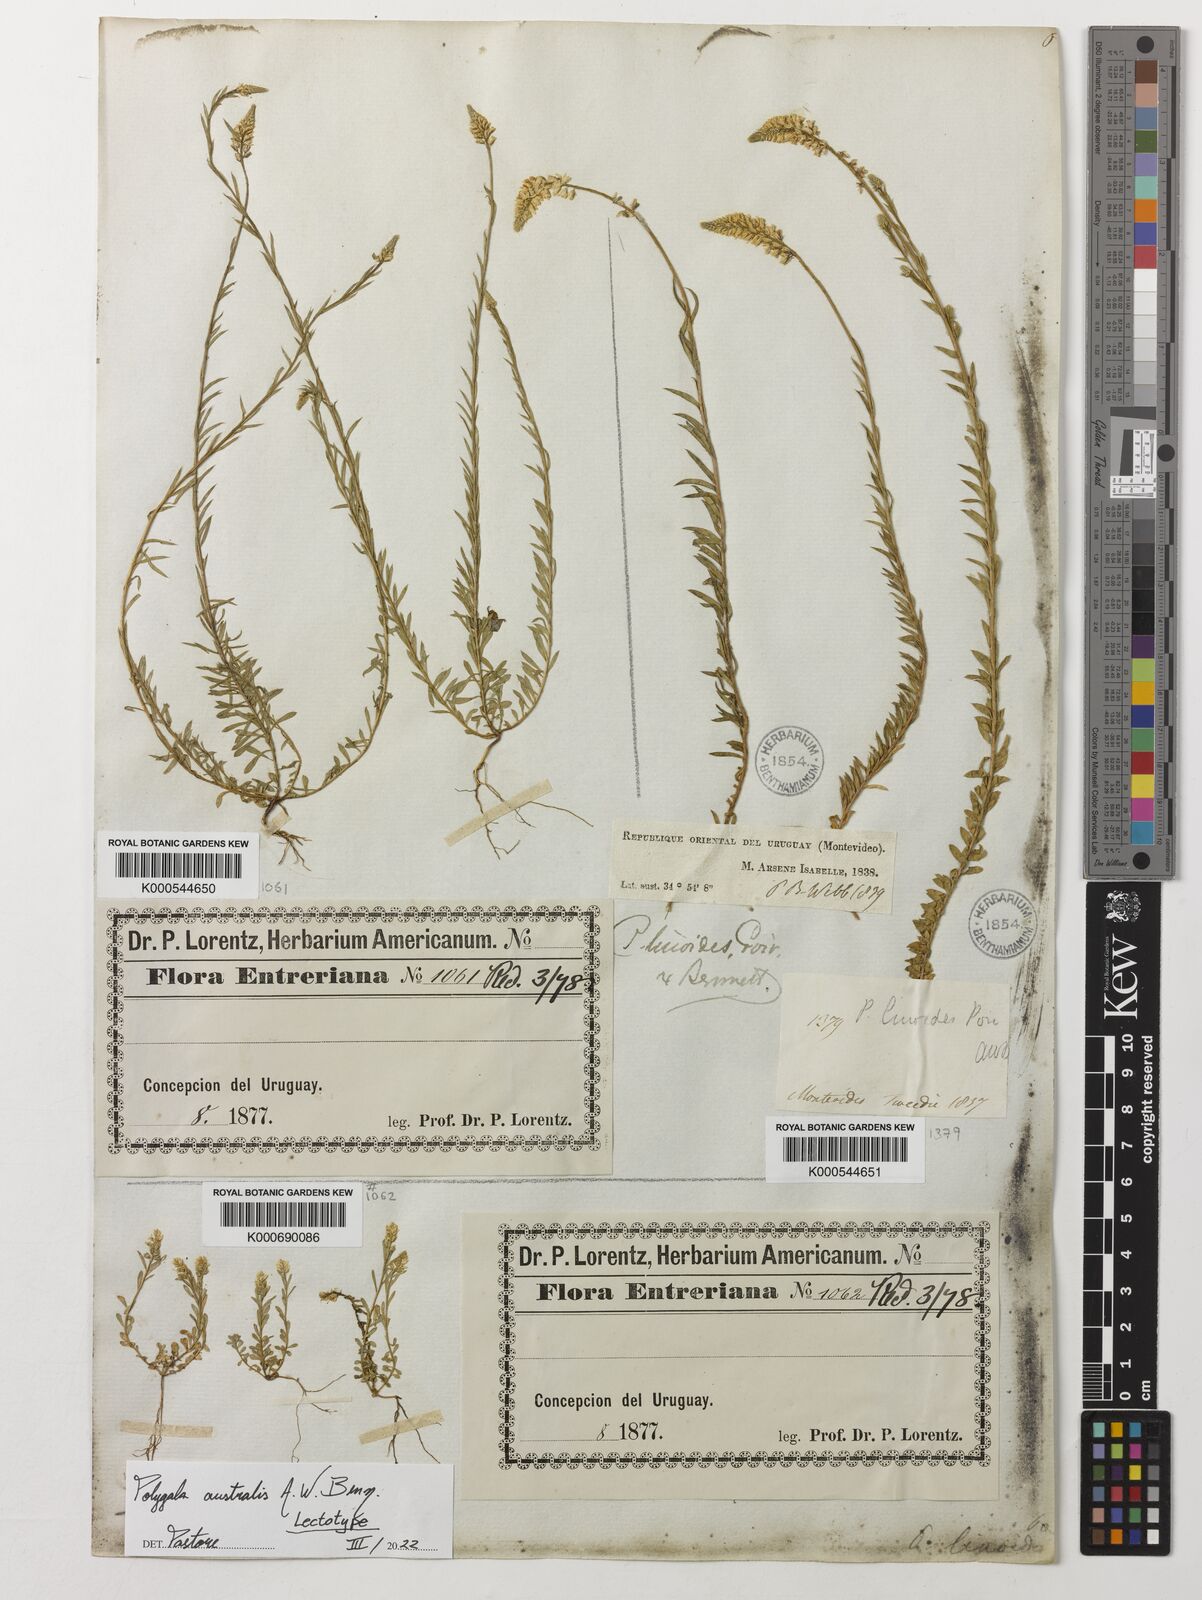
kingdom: Plantae
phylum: Tracheophyta
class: Magnoliopsida
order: Fabales
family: Polygalaceae
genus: Polygala
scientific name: Polygala linoides
